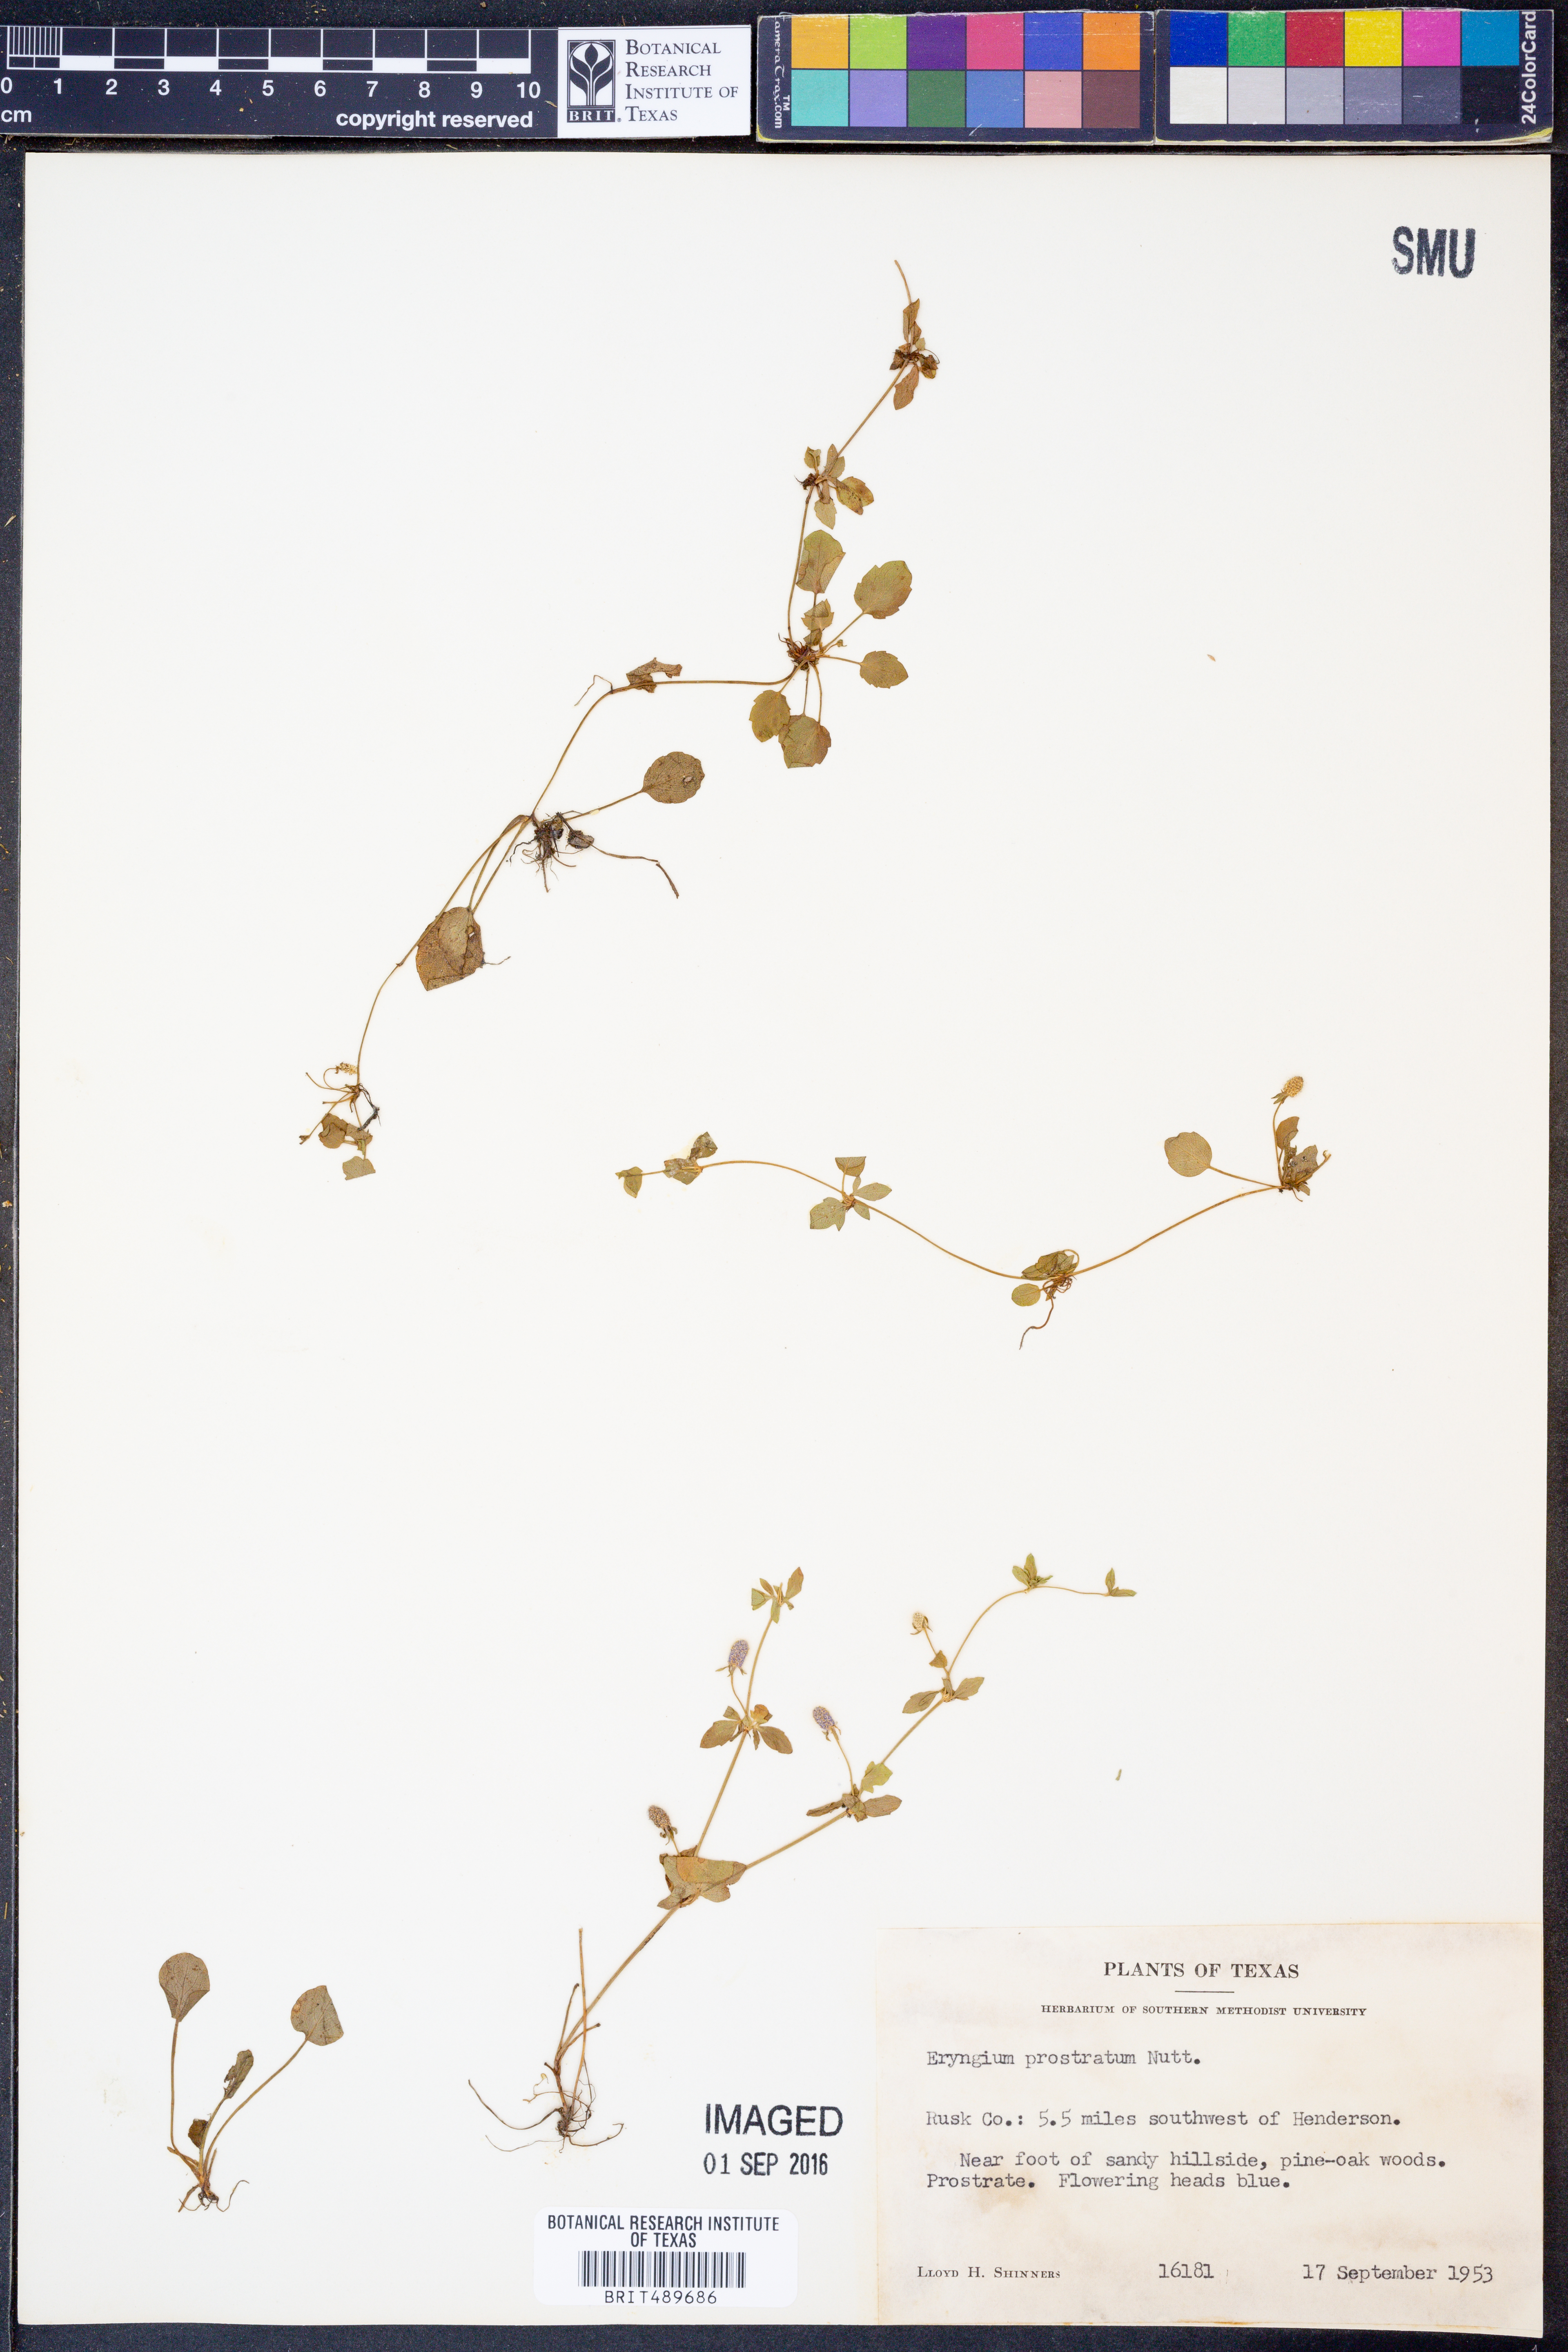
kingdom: Plantae
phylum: Tracheophyta
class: Magnoliopsida
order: Apiales
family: Apiaceae
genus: Eryngium
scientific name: Eryngium prostratum
